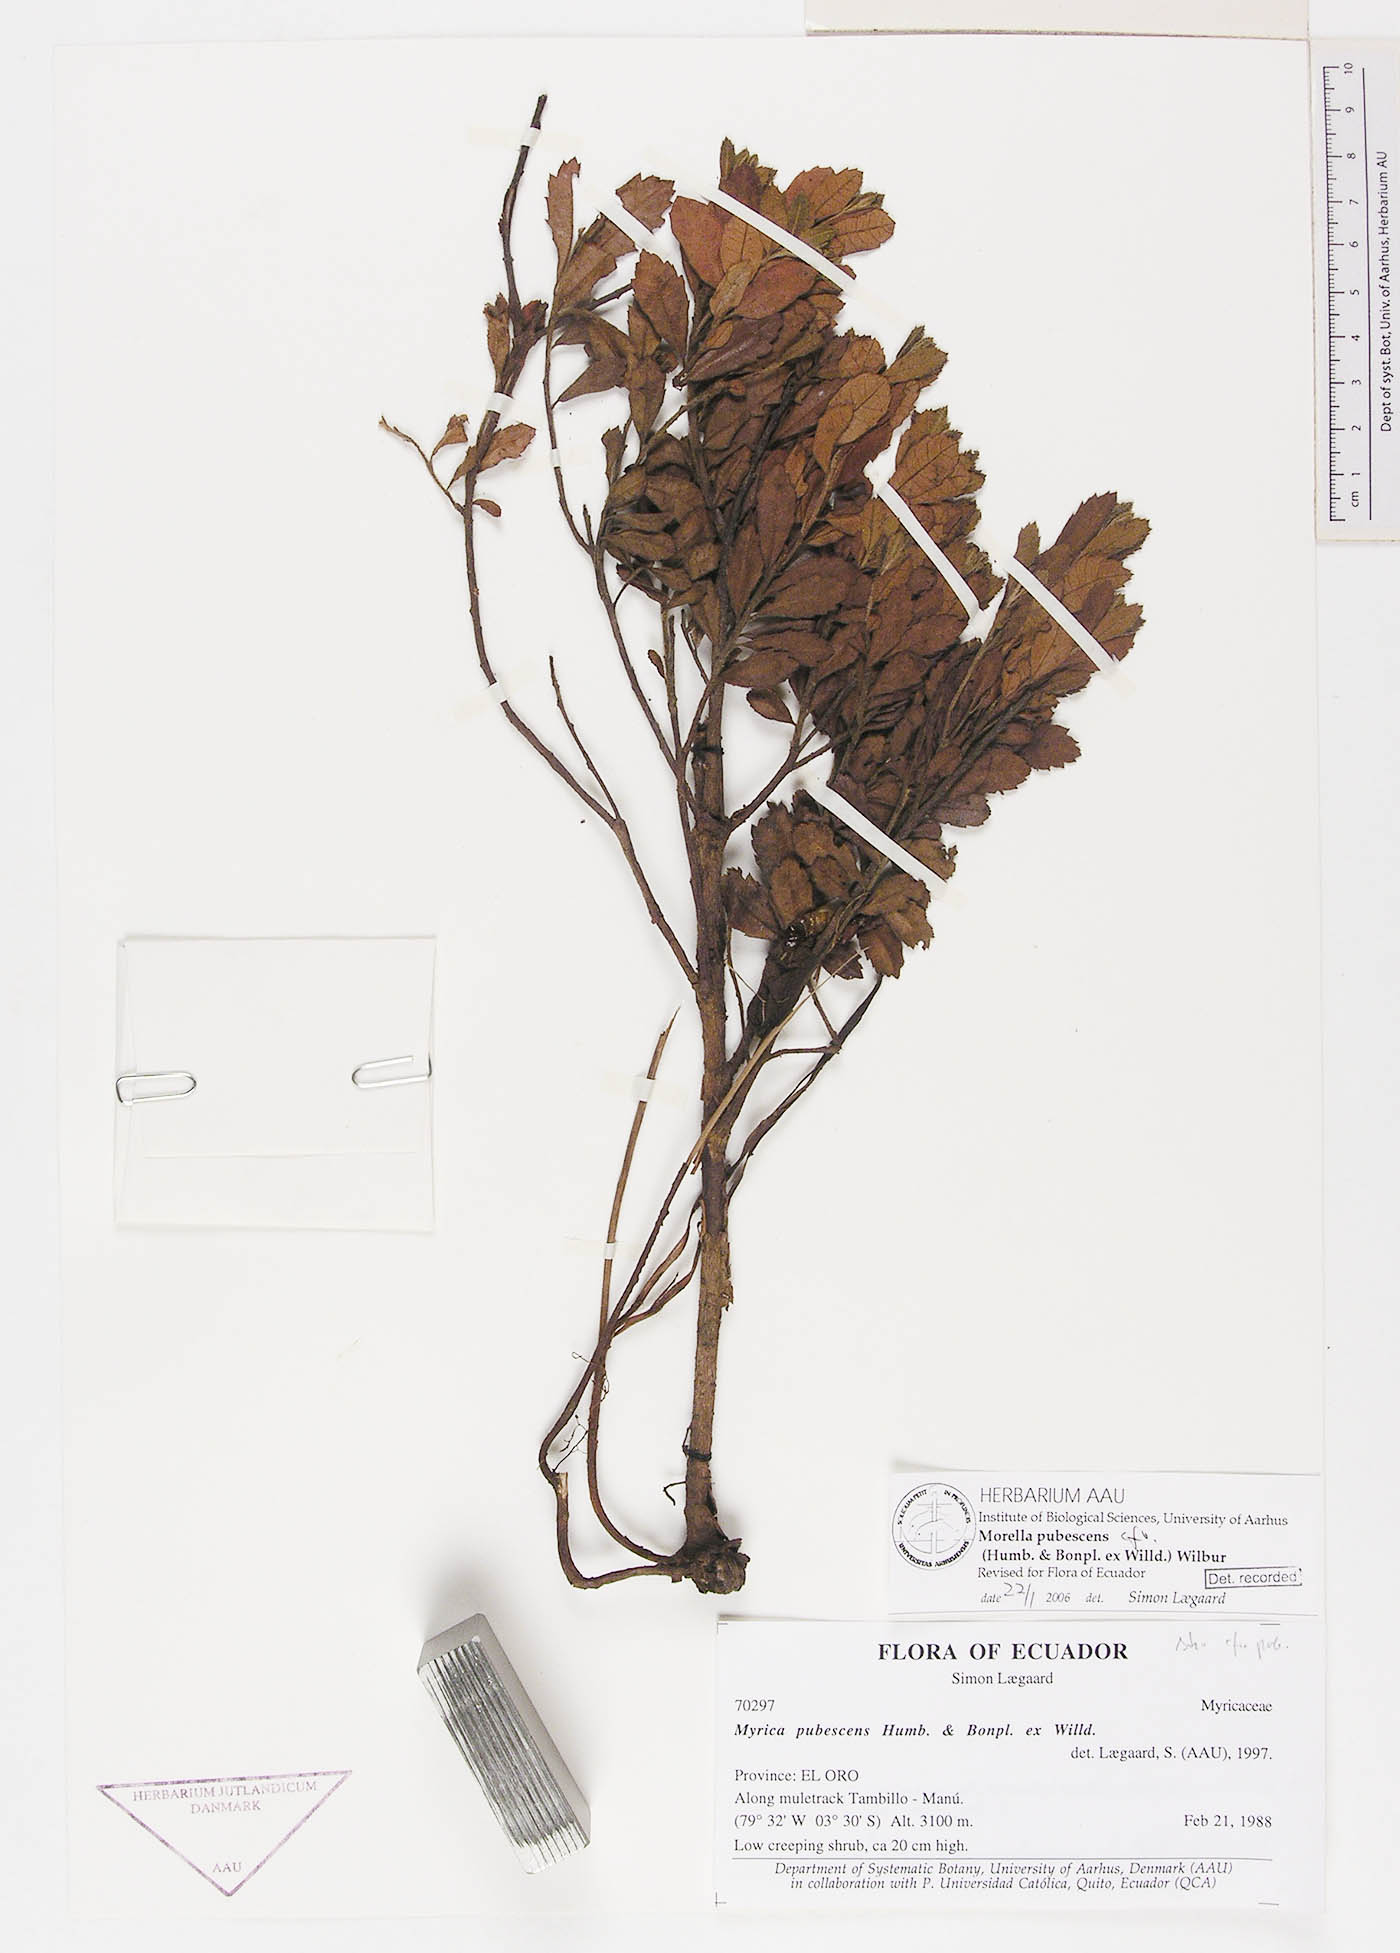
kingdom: Plantae
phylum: Tracheophyta
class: Magnoliopsida
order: Fagales
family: Myricaceae
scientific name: Myricaceae
